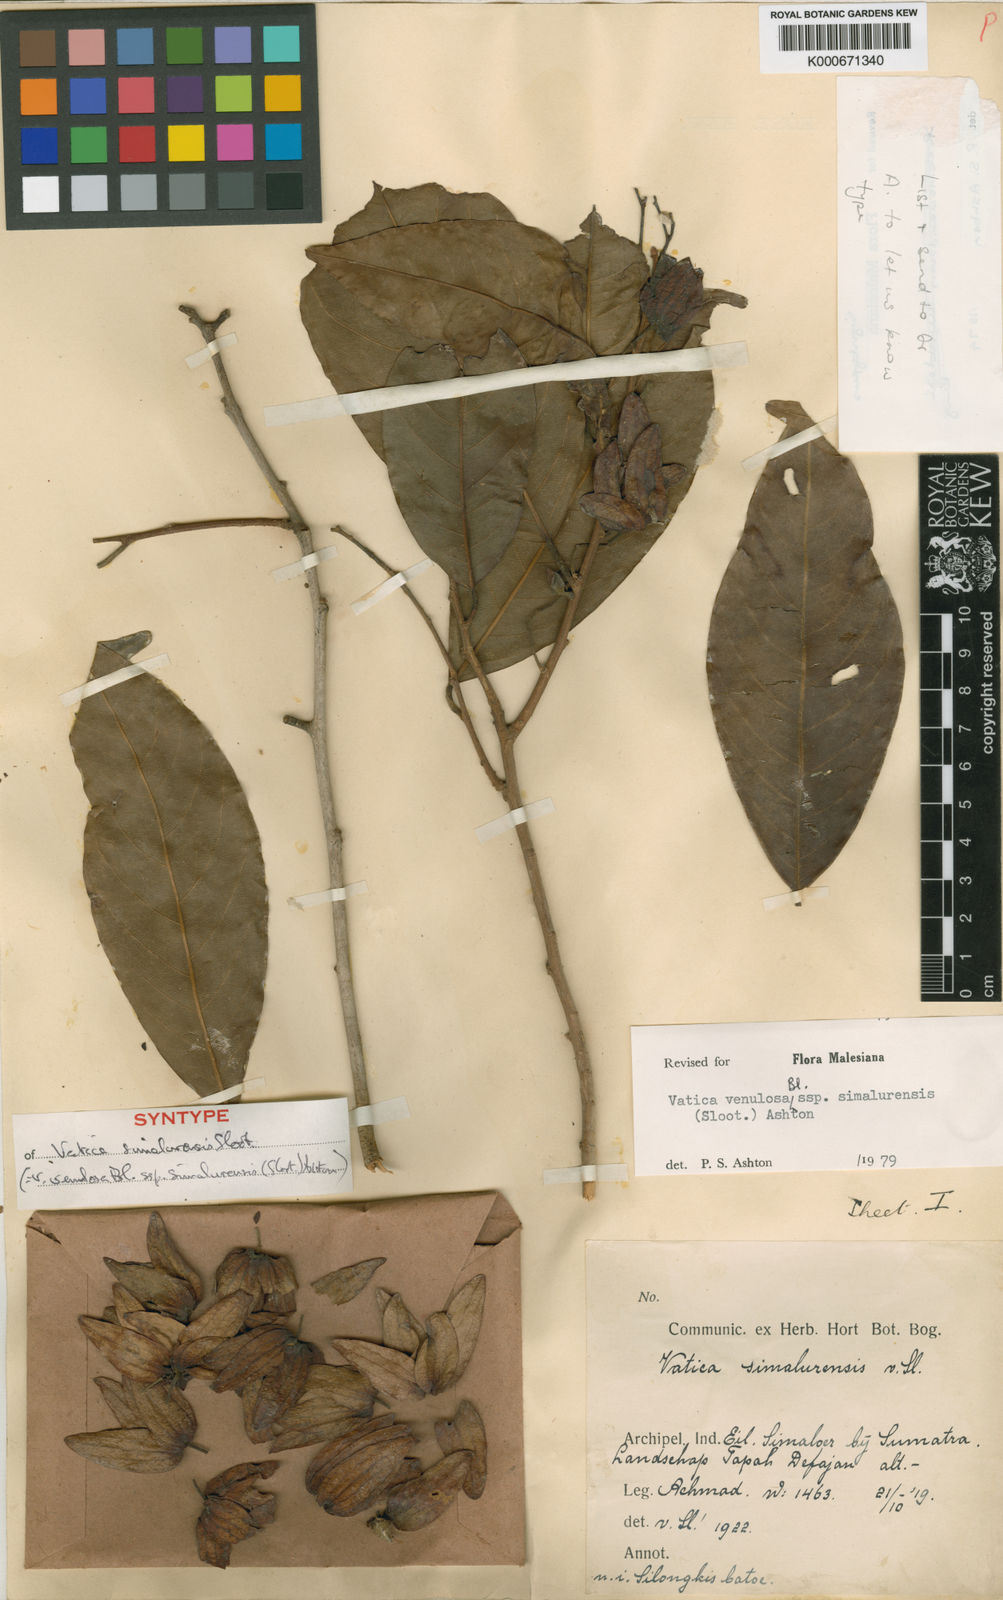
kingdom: Plantae
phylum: Tracheophyta
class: Magnoliopsida
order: Malvales
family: Dipterocarpaceae
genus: Vatica
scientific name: Vatica venulosa
